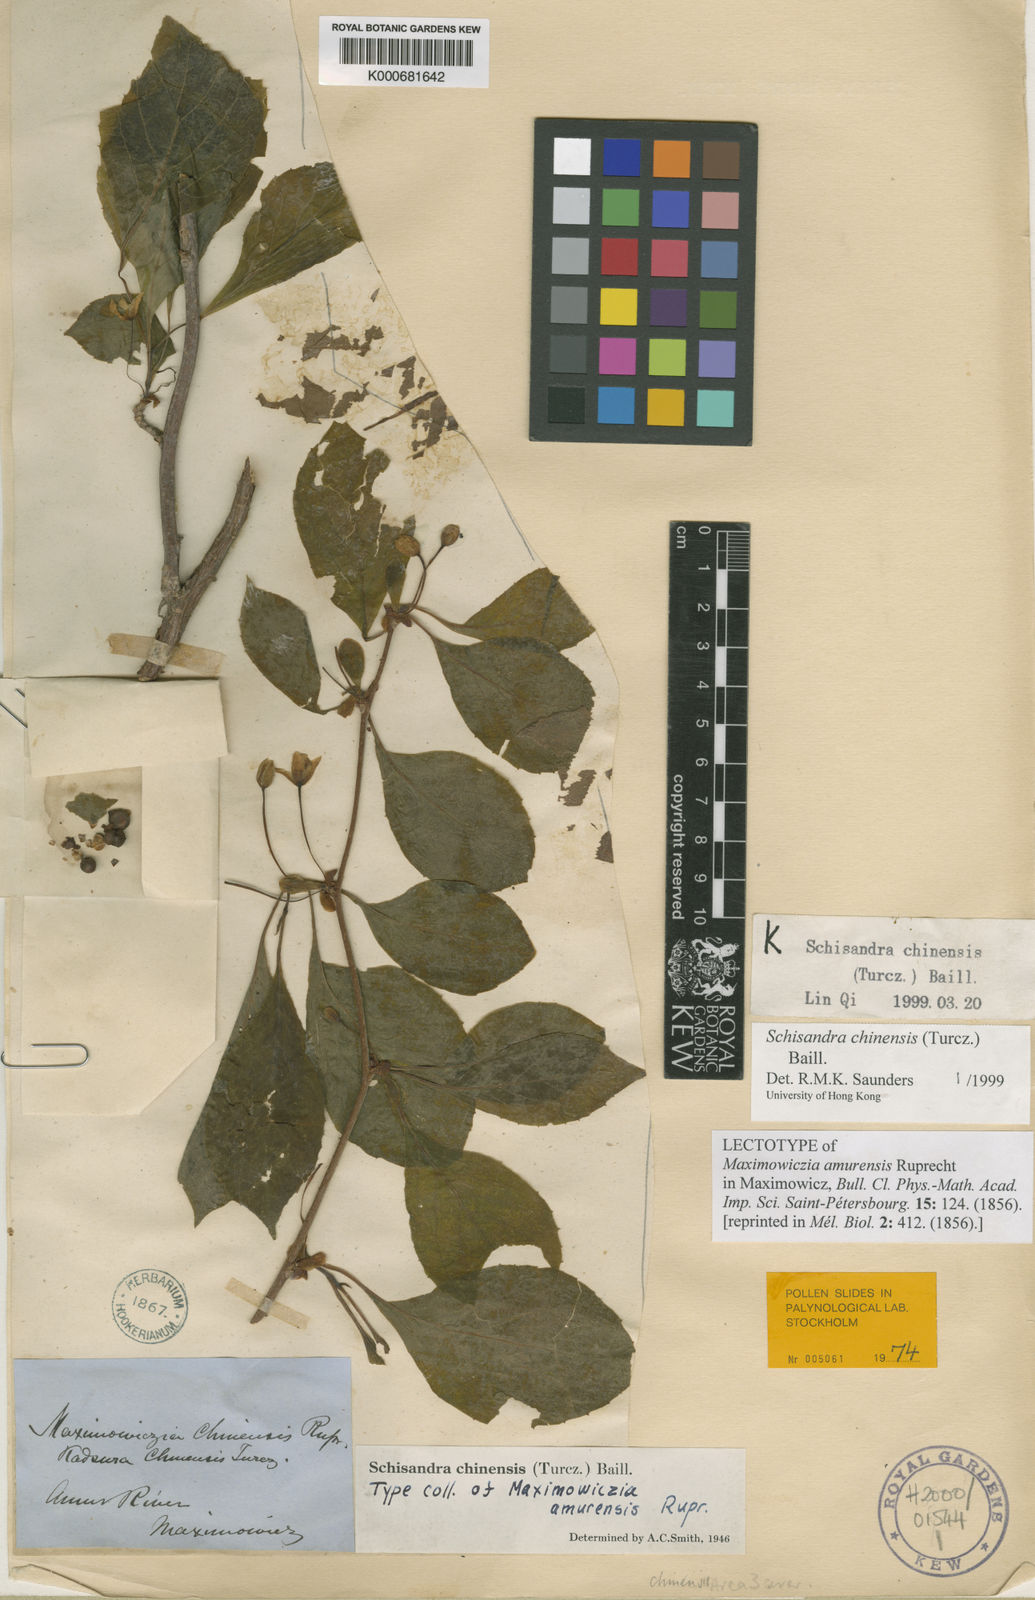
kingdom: Plantae
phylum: Tracheophyta
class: Magnoliopsida
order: Austrobaileyales
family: Schisandraceae
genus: Schisandra
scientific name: Schisandra chinensis
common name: Magnolia-vine
